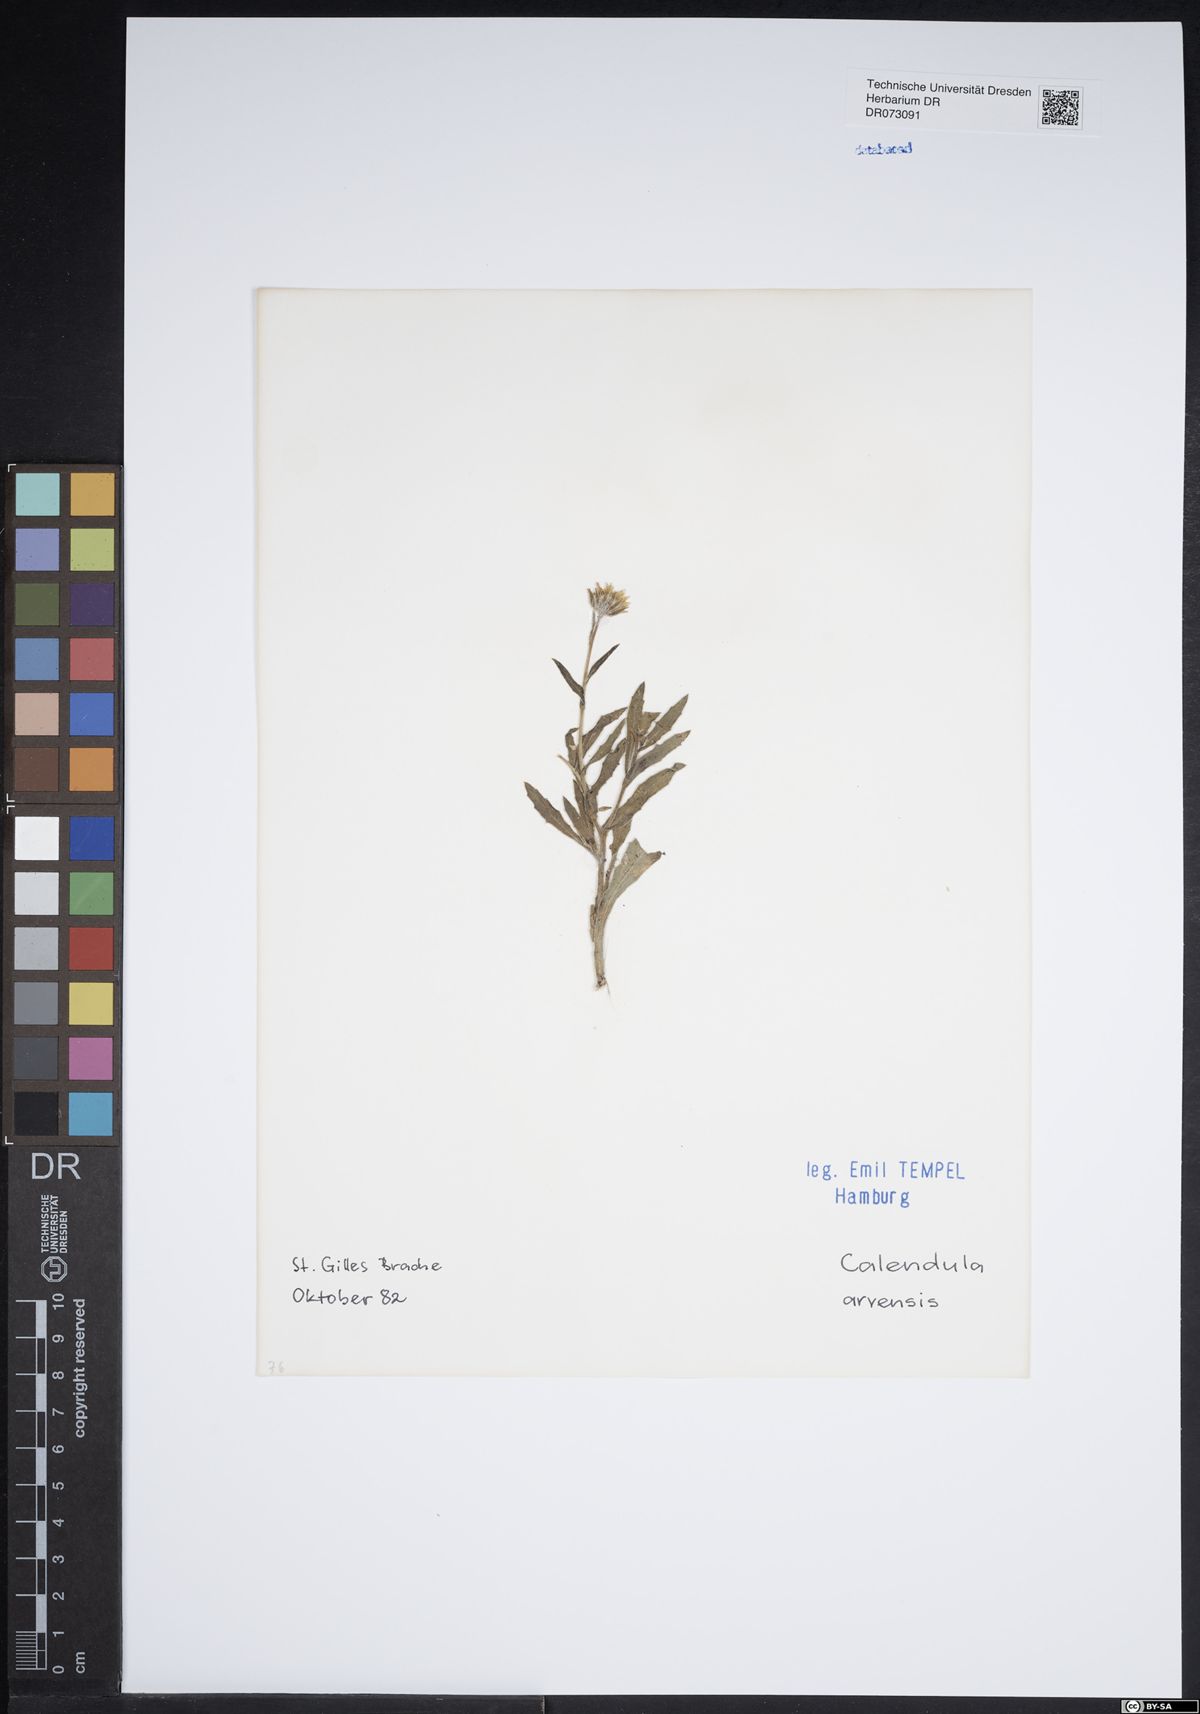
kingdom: Plantae
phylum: Tracheophyta
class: Magnoliopsida
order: Asterales
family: Asteraceae
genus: Centaurea
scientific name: Centaurea aspera
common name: Rough star-thistle
